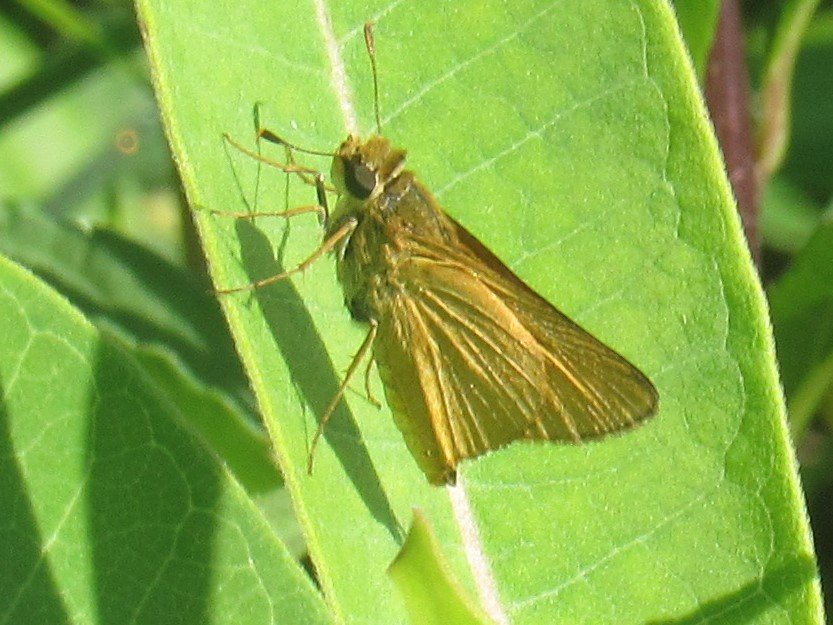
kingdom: Animalia
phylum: Arthropoda
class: Insecta
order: Lepidoptera
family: Hesperiidae
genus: Atrytone
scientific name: Atrytone delaware
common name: Delaware Skipper
